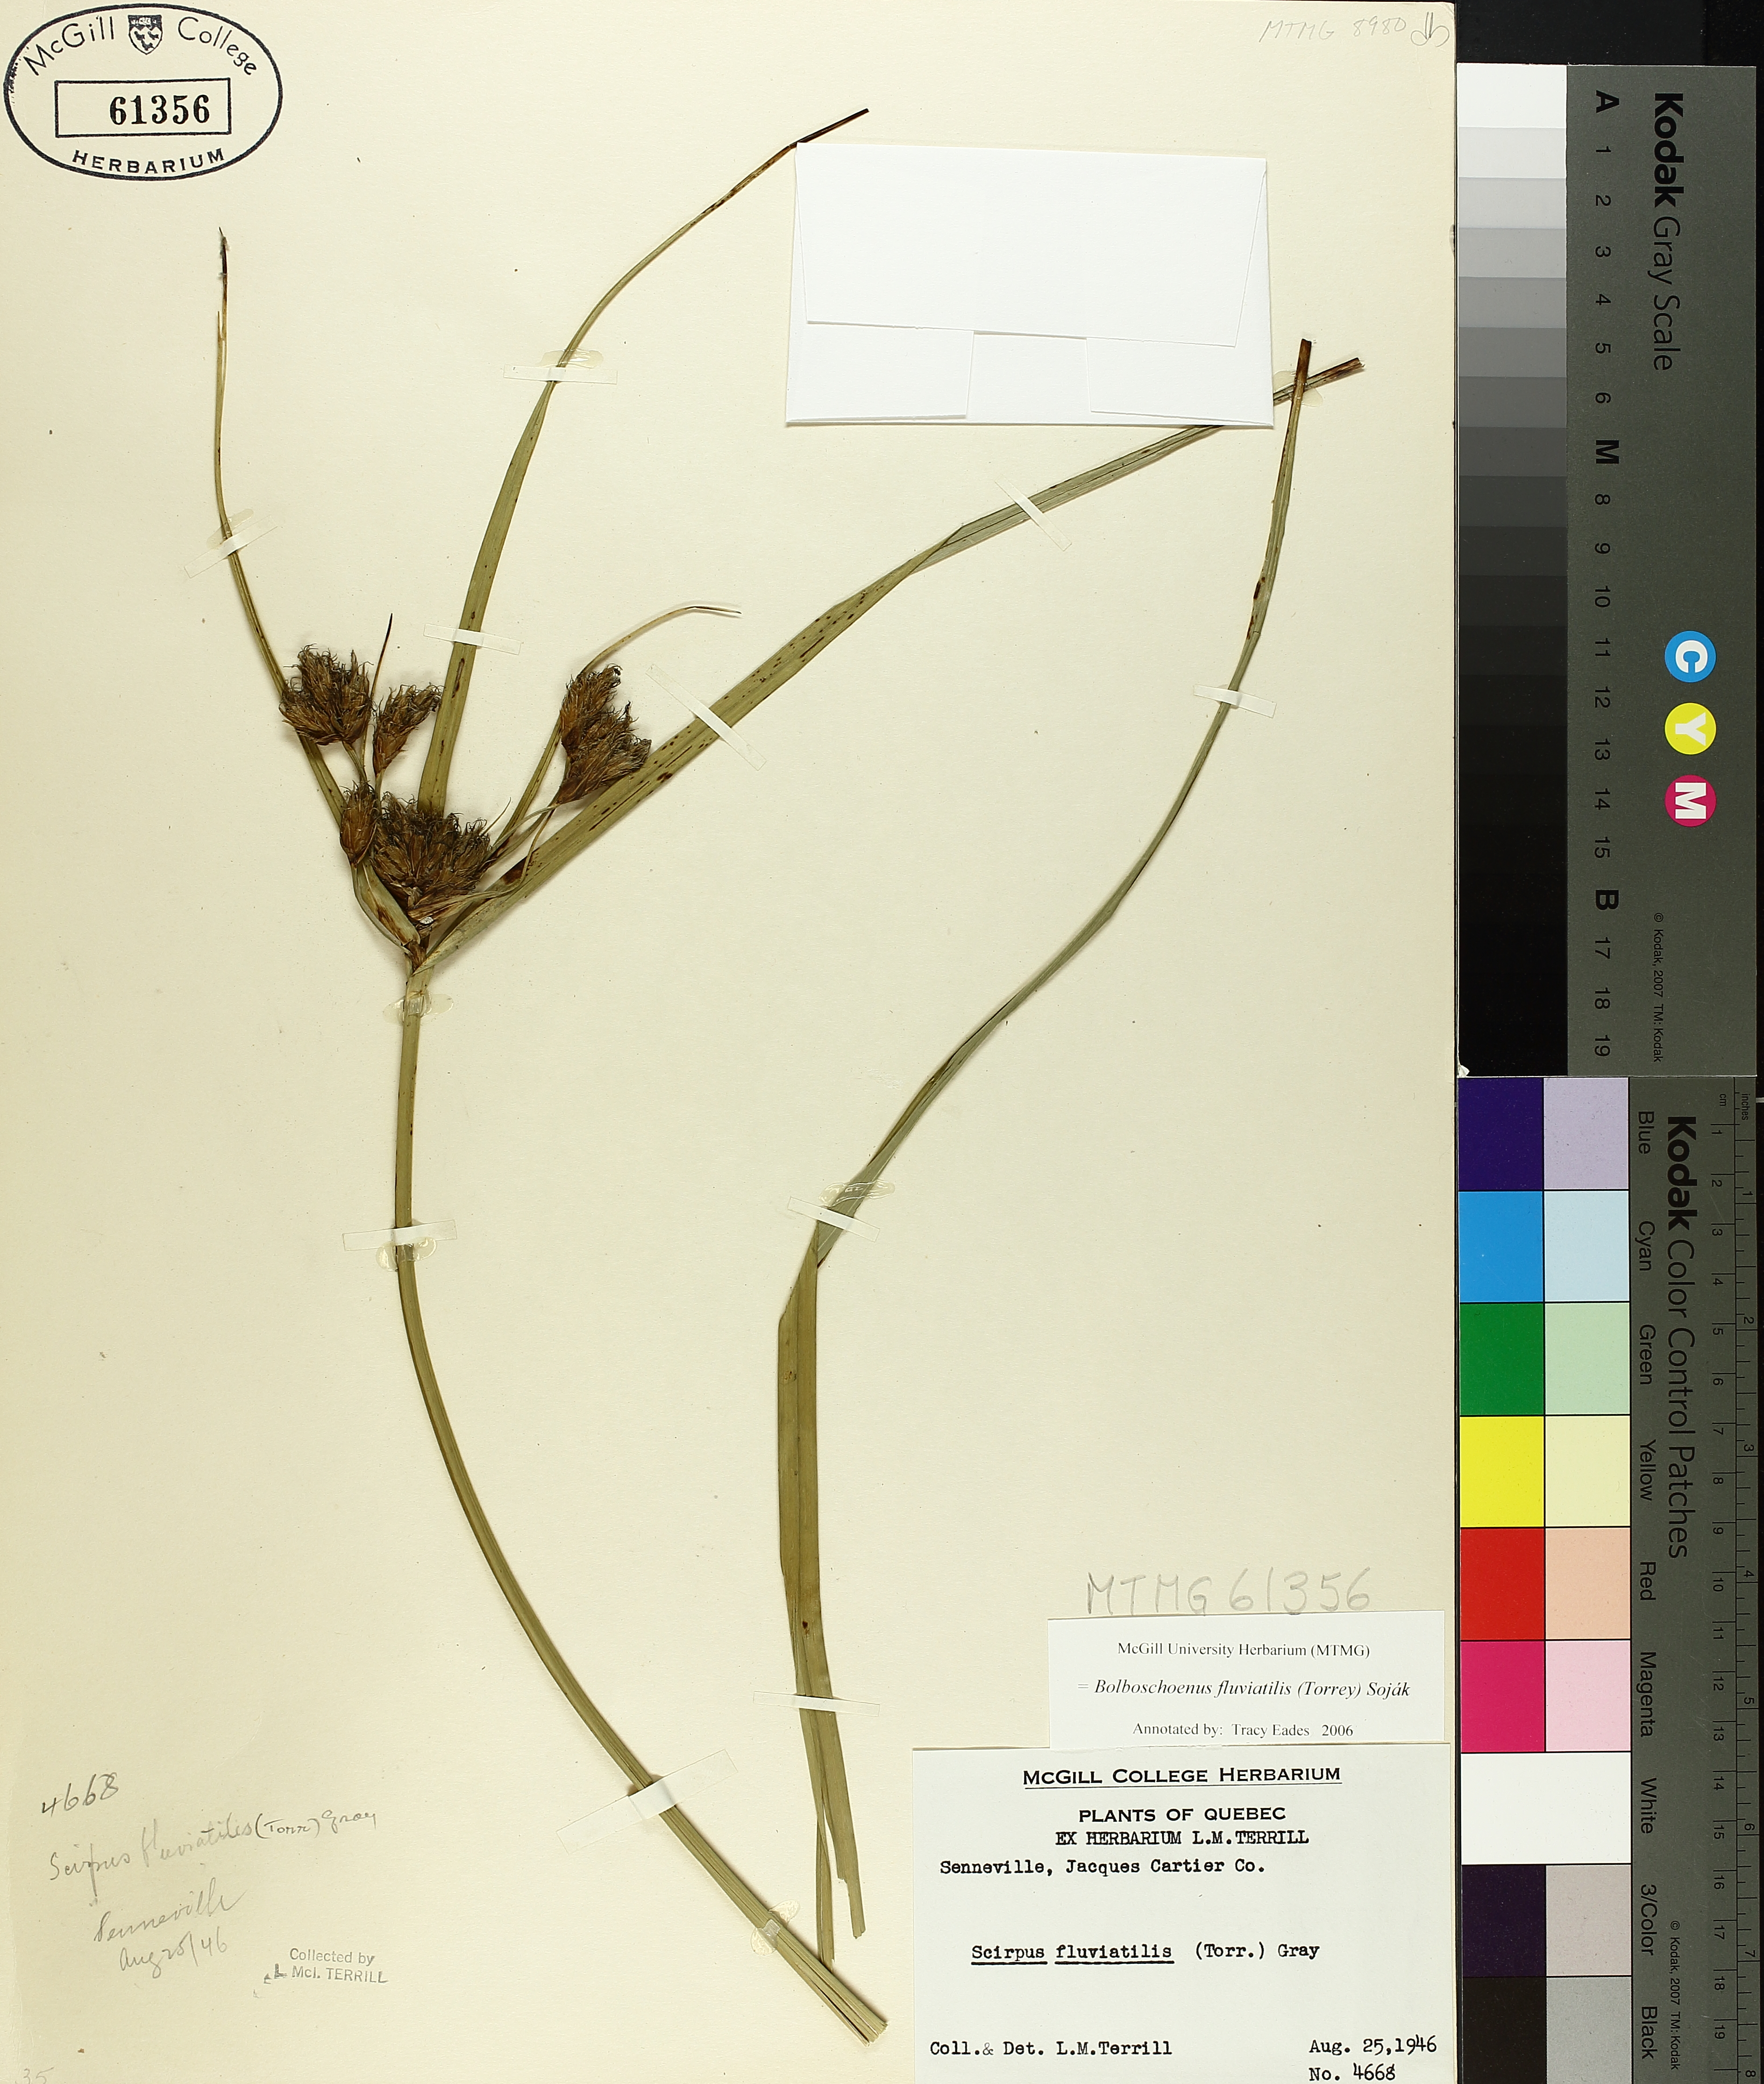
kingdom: Plantae
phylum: Tracheophyta
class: Liliopsida
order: Poales
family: Cyperaceae
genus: Bolboschoenus
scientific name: Bolboschoenus fluviatilis
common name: River bulrush
